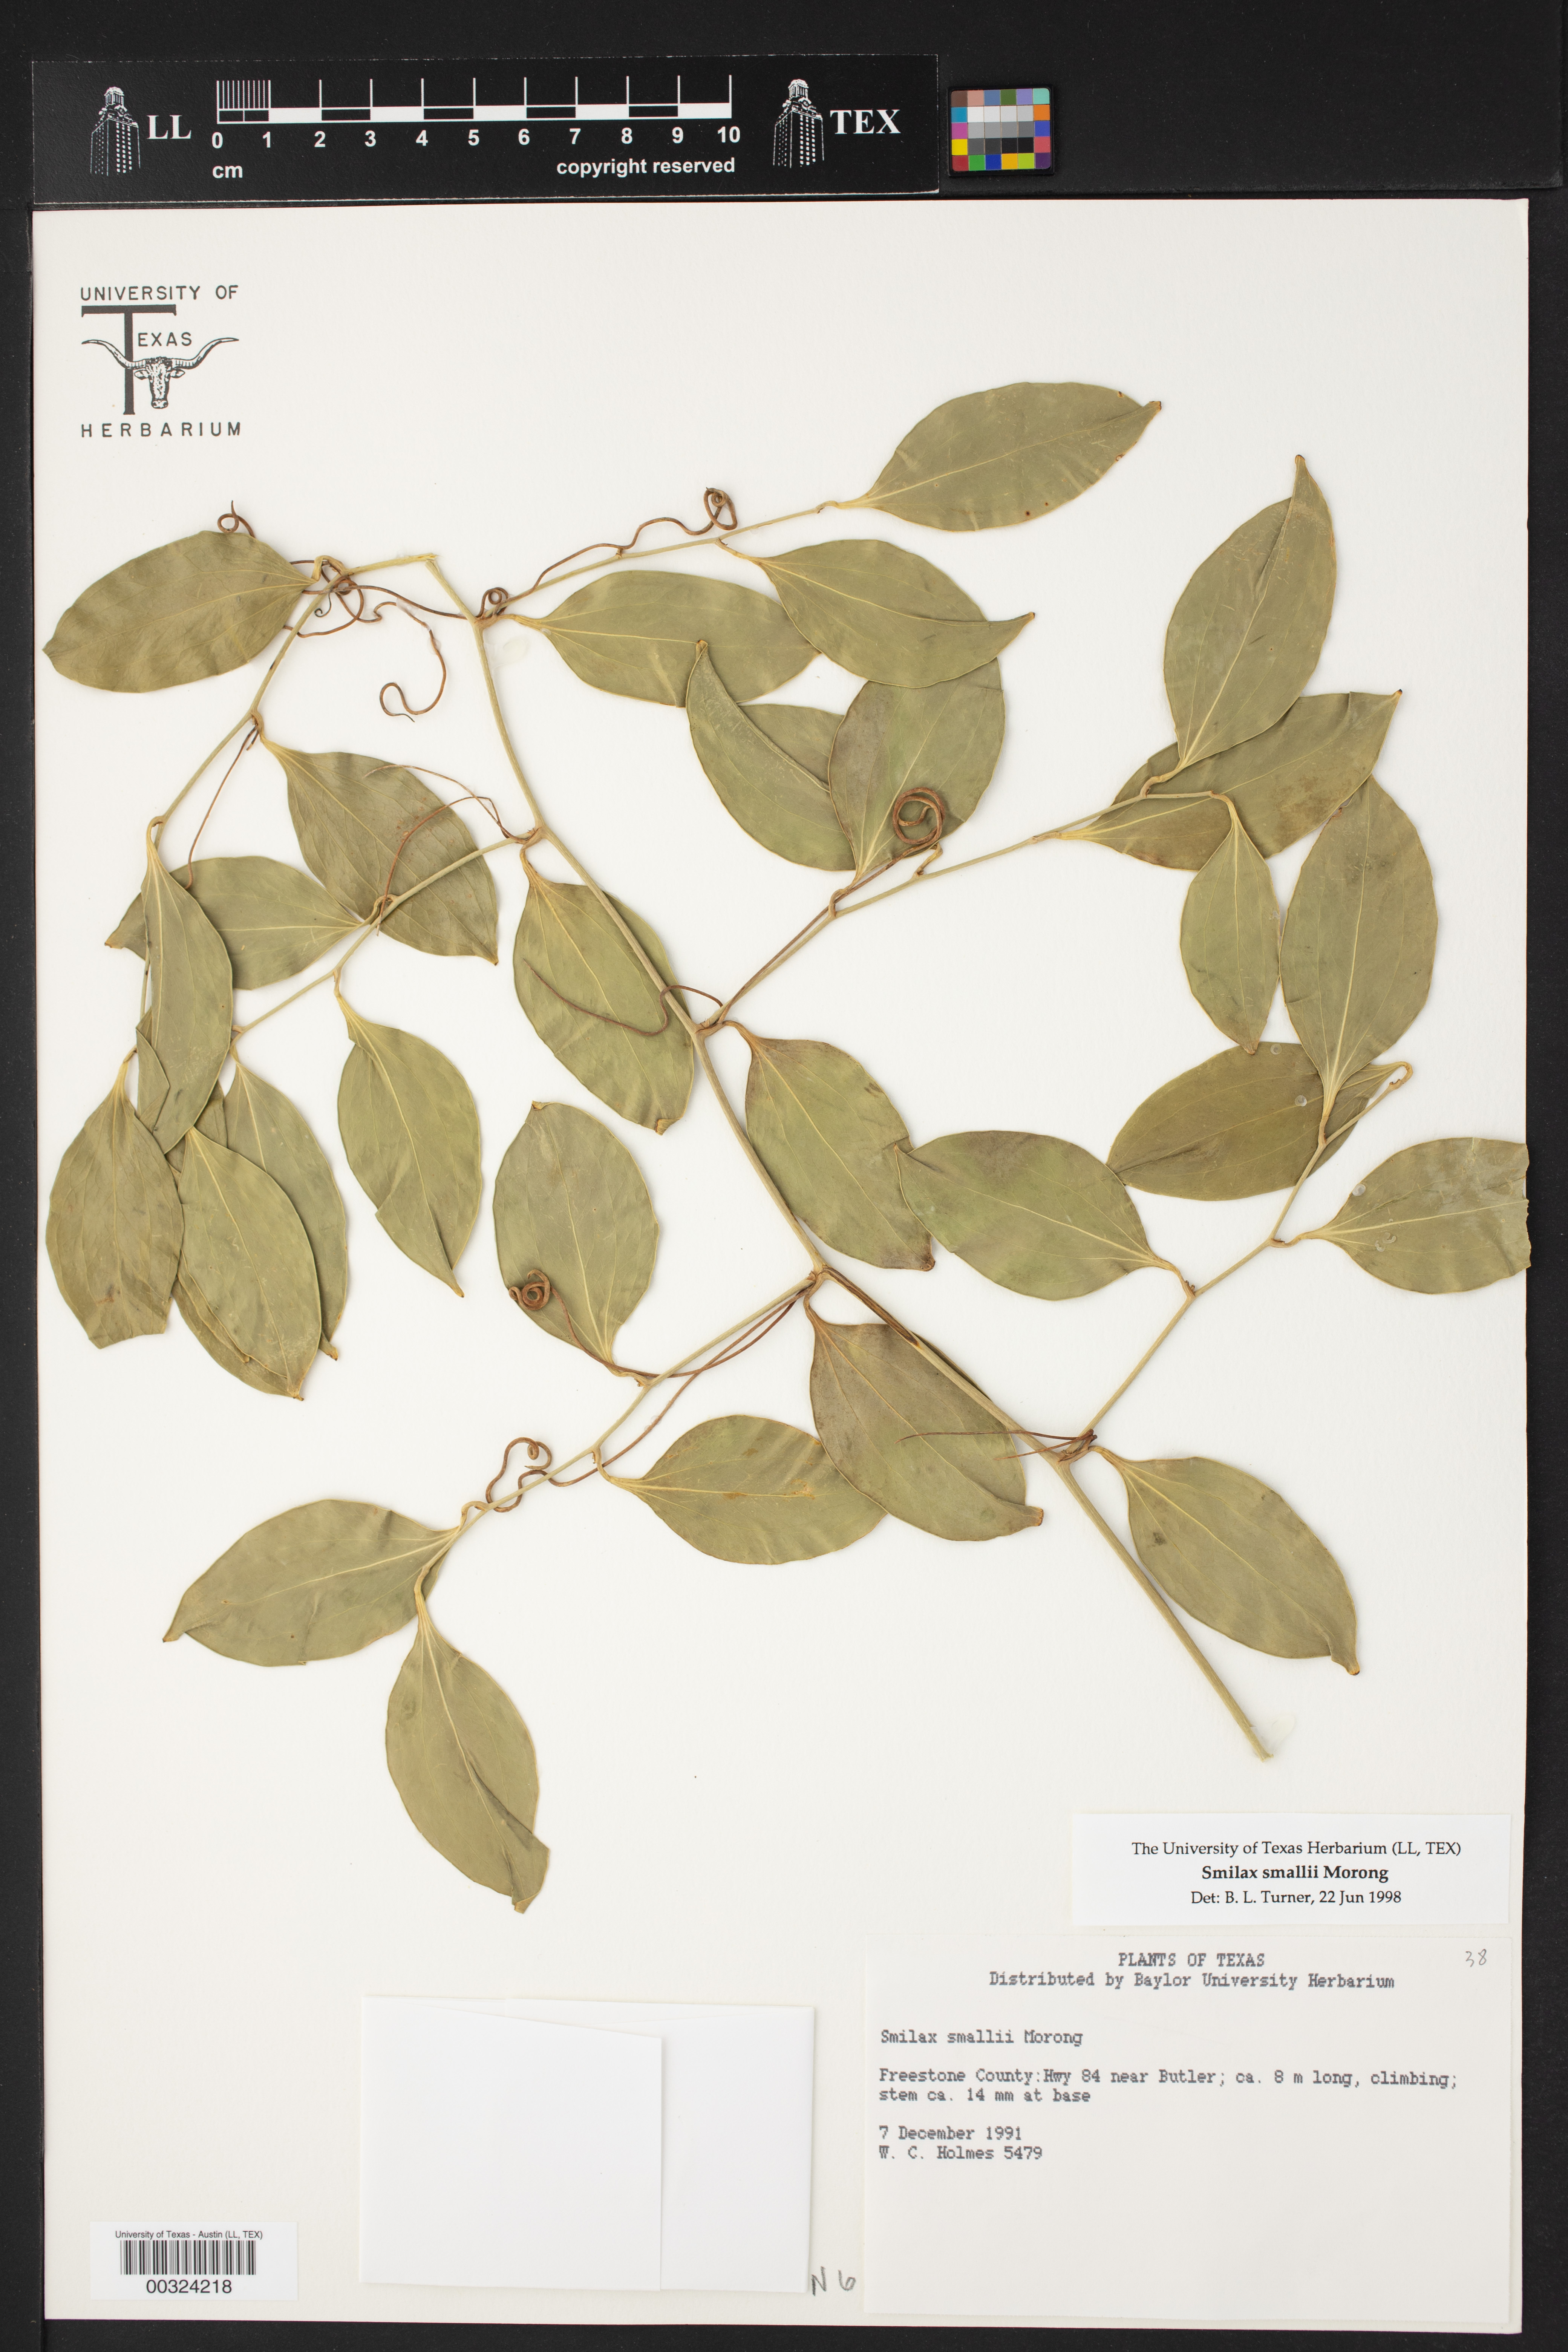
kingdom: Plantae
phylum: Tracheophyta
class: Liliopsida
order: Liliales
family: Smilacaceae
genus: Smilax
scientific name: Smilax maritima
